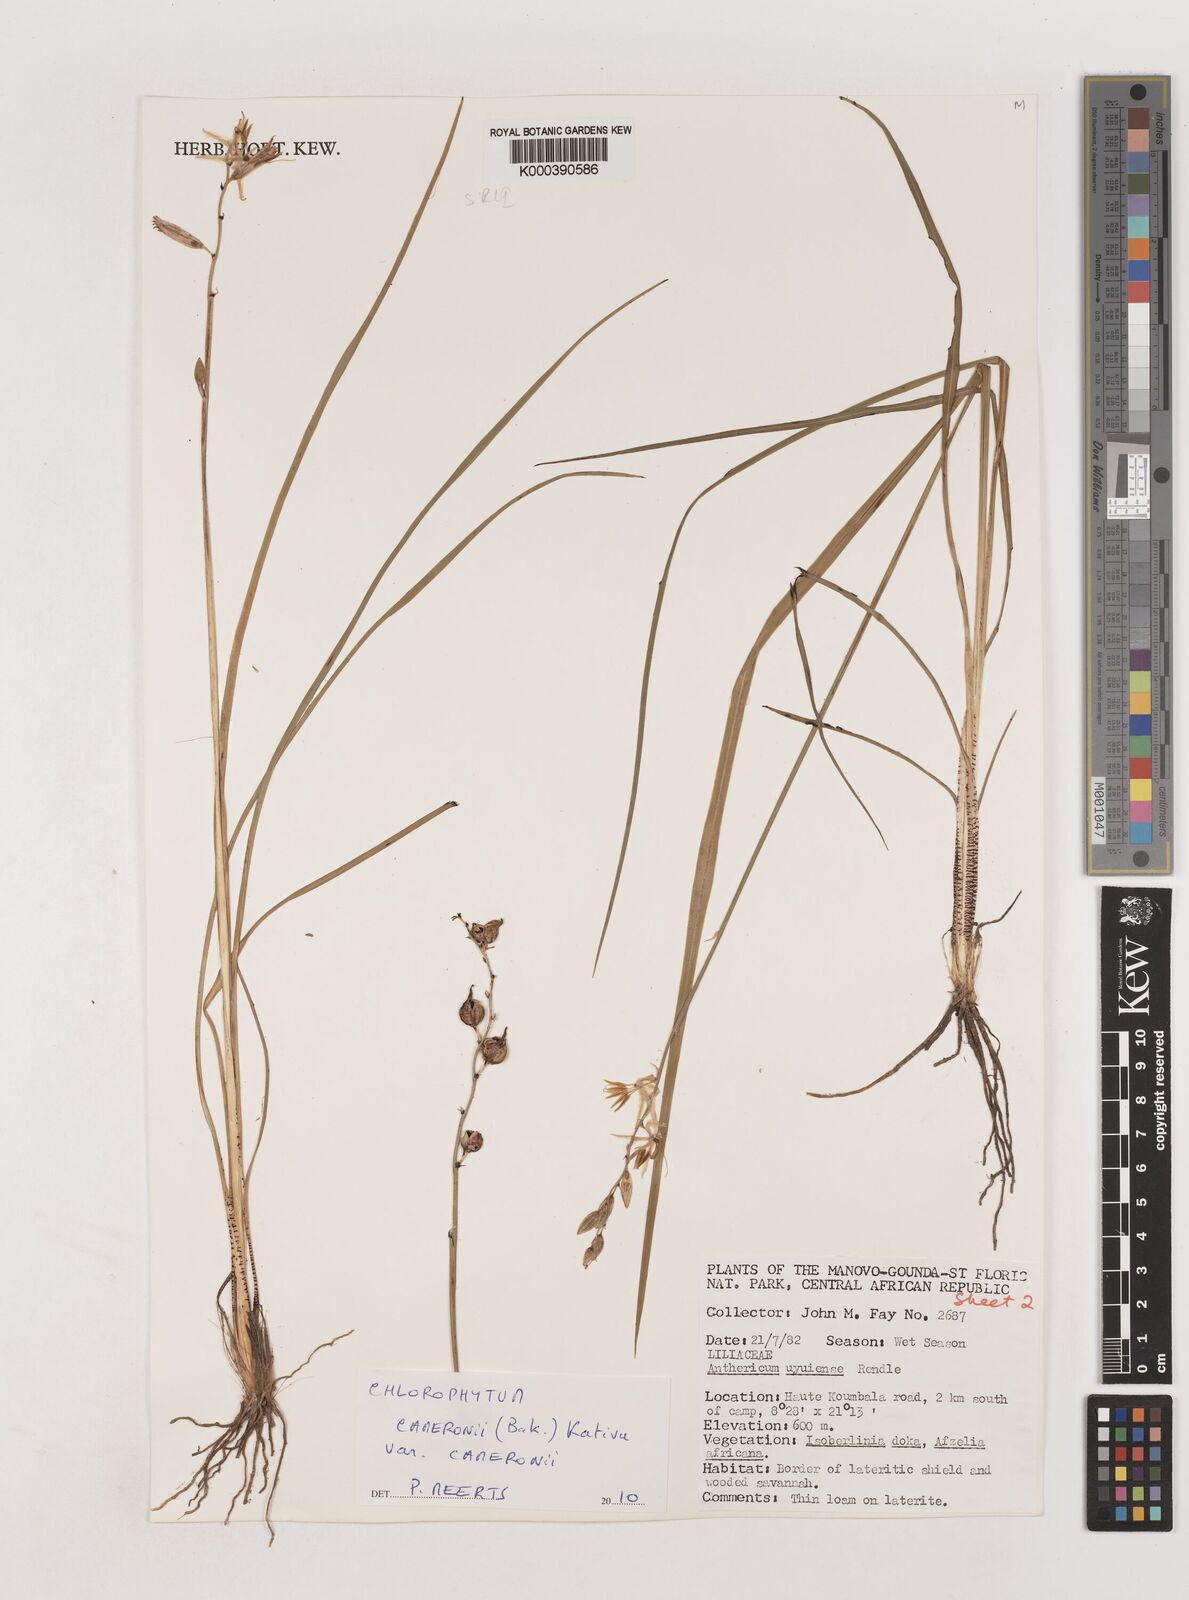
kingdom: Plantae
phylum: Tracheophyta
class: Liliopsida
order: Asparagales
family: Asparagaceae
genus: Chlorophytum
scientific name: Chlorophytum cameronii
